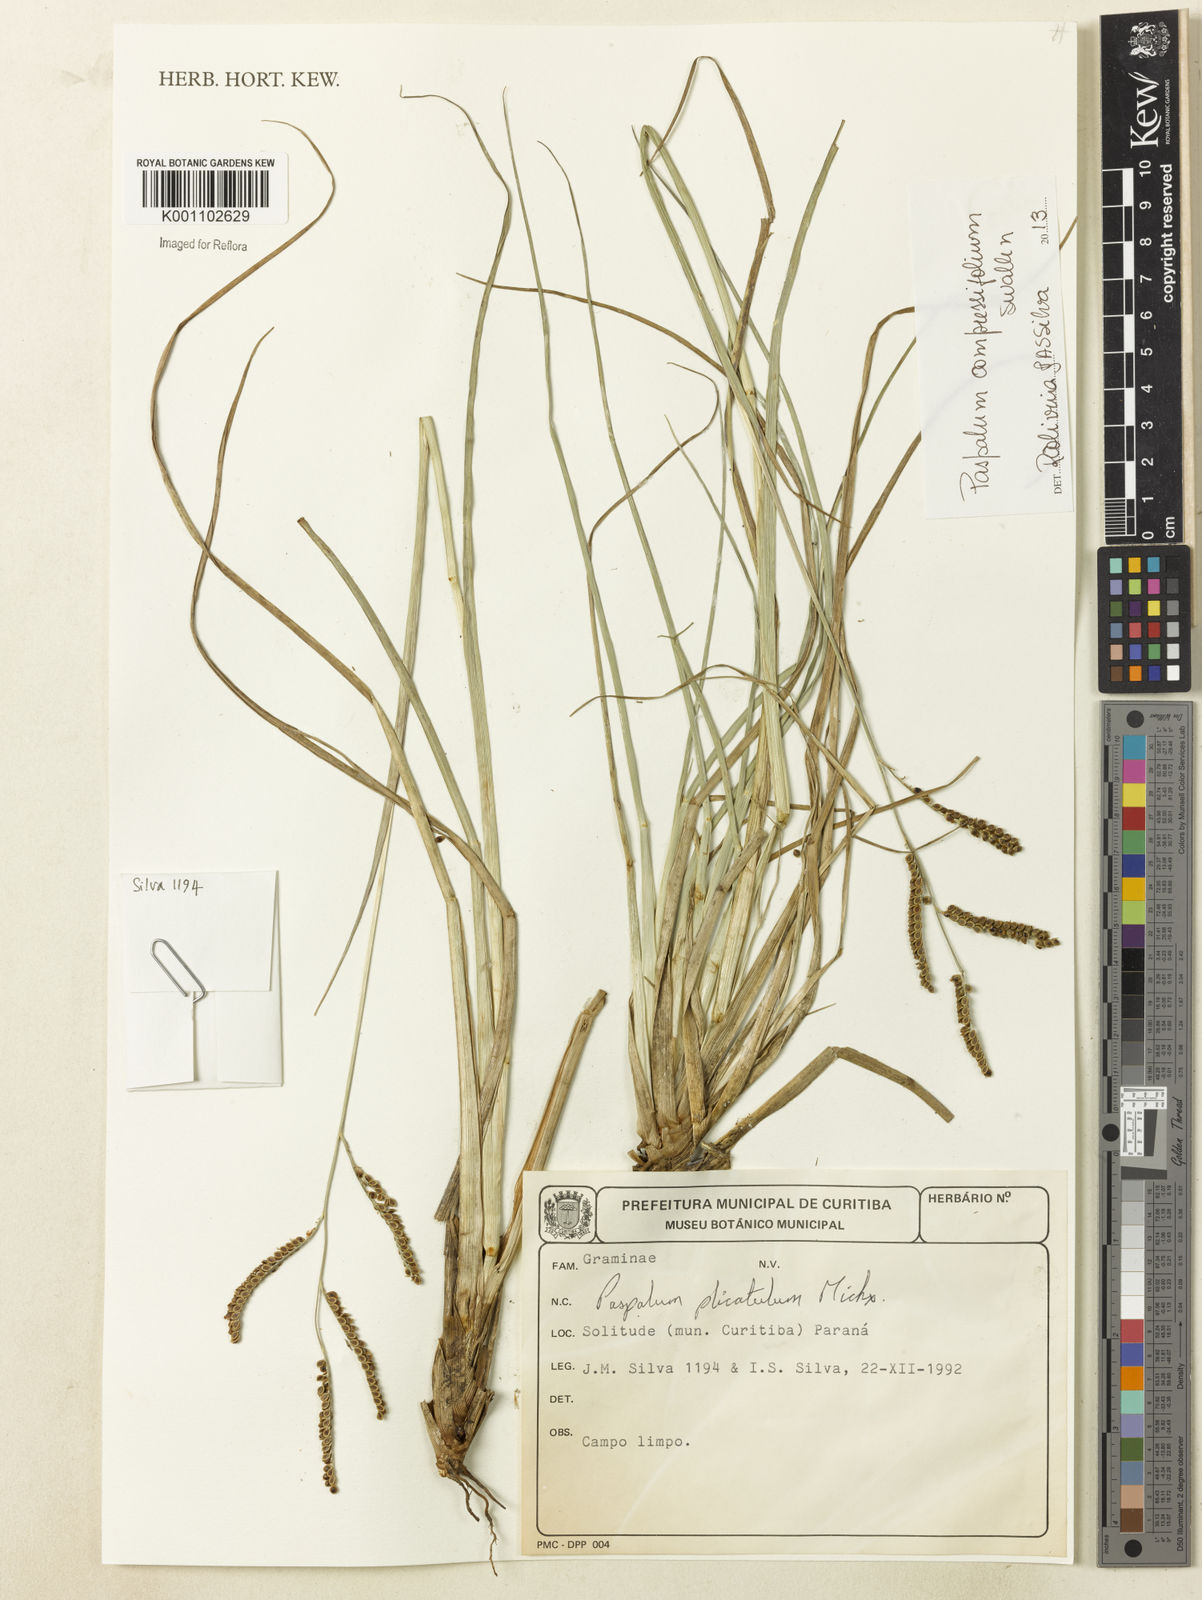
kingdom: Plantae
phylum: Tracheophyta
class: Liliopsida
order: Poales
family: Poaceae
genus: Paspalum
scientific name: Paspalum
